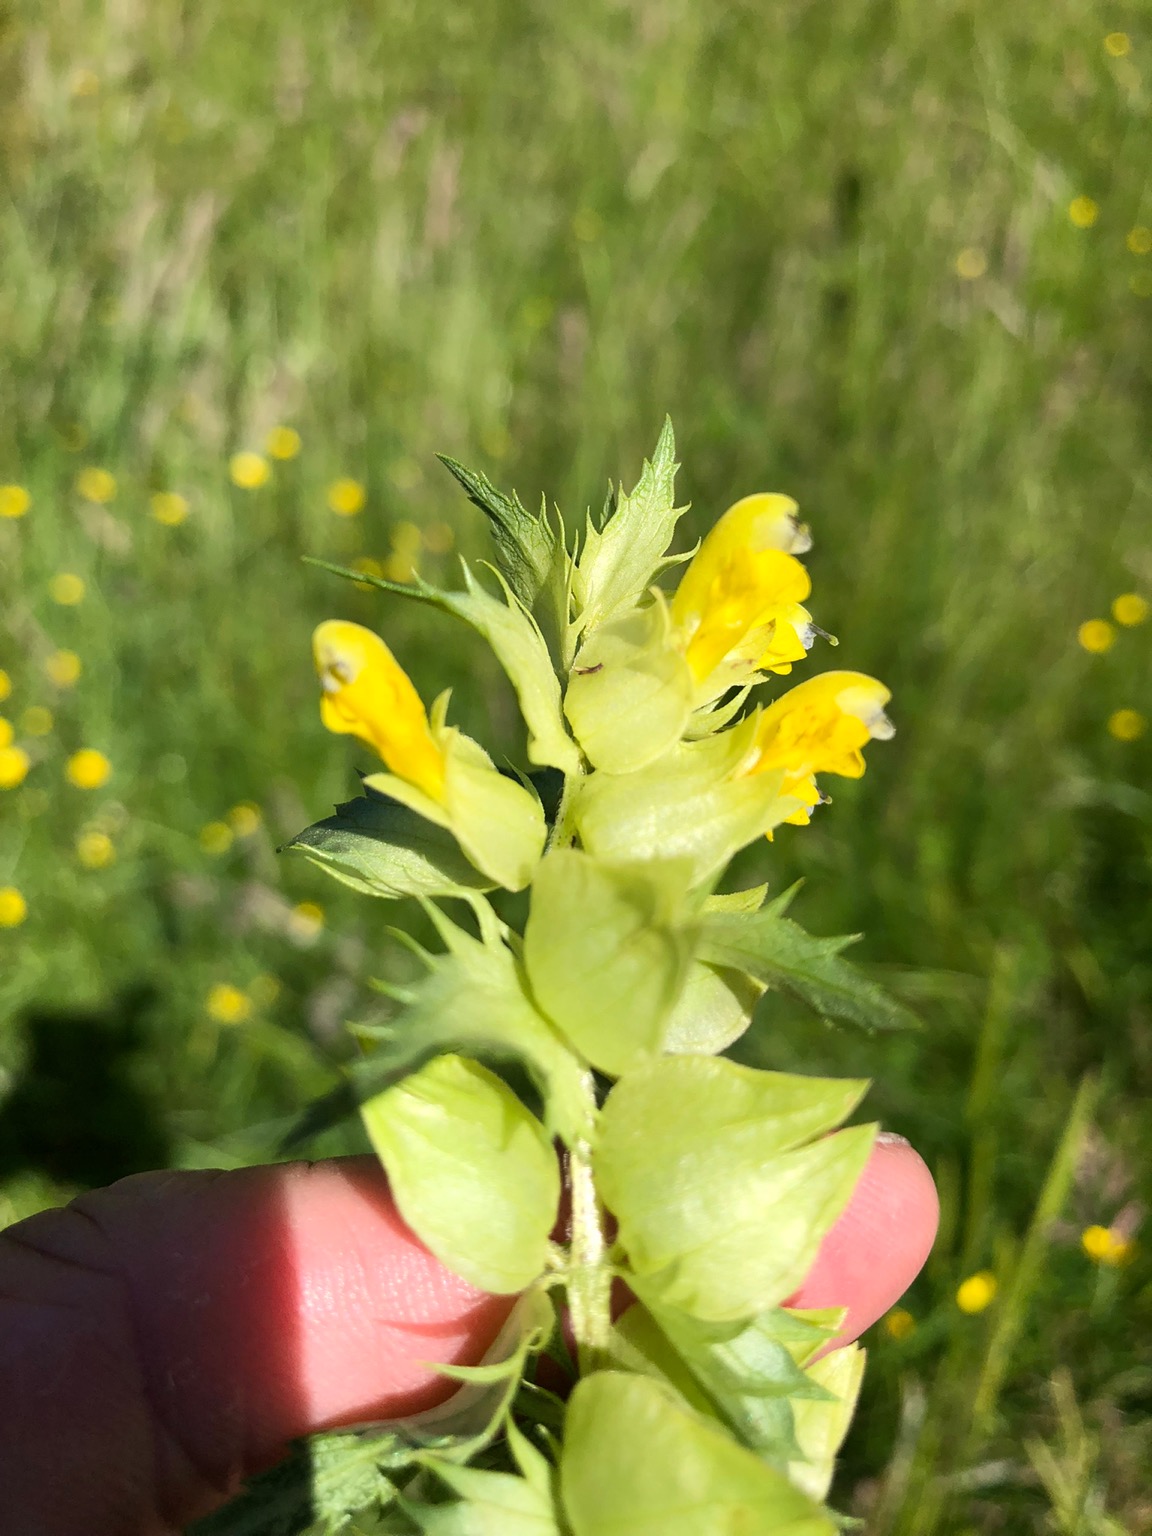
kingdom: Plantae
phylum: Tracheophyta
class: Magnoliopsida
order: Lamiales
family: Orobanchaceae
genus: Rhinanthus
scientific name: Rhinanthus
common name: Stor skjaller
